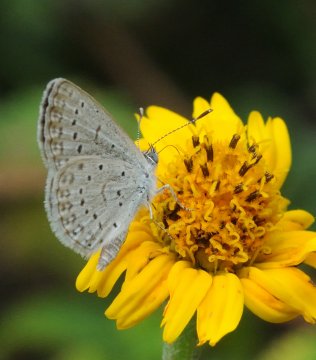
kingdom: Animalia
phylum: Arthropoda
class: Insecta
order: Lepidoptera
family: Lycaenidae
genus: Zizeeria
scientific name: Zizeeria knysna
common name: Dark Grass Blue
